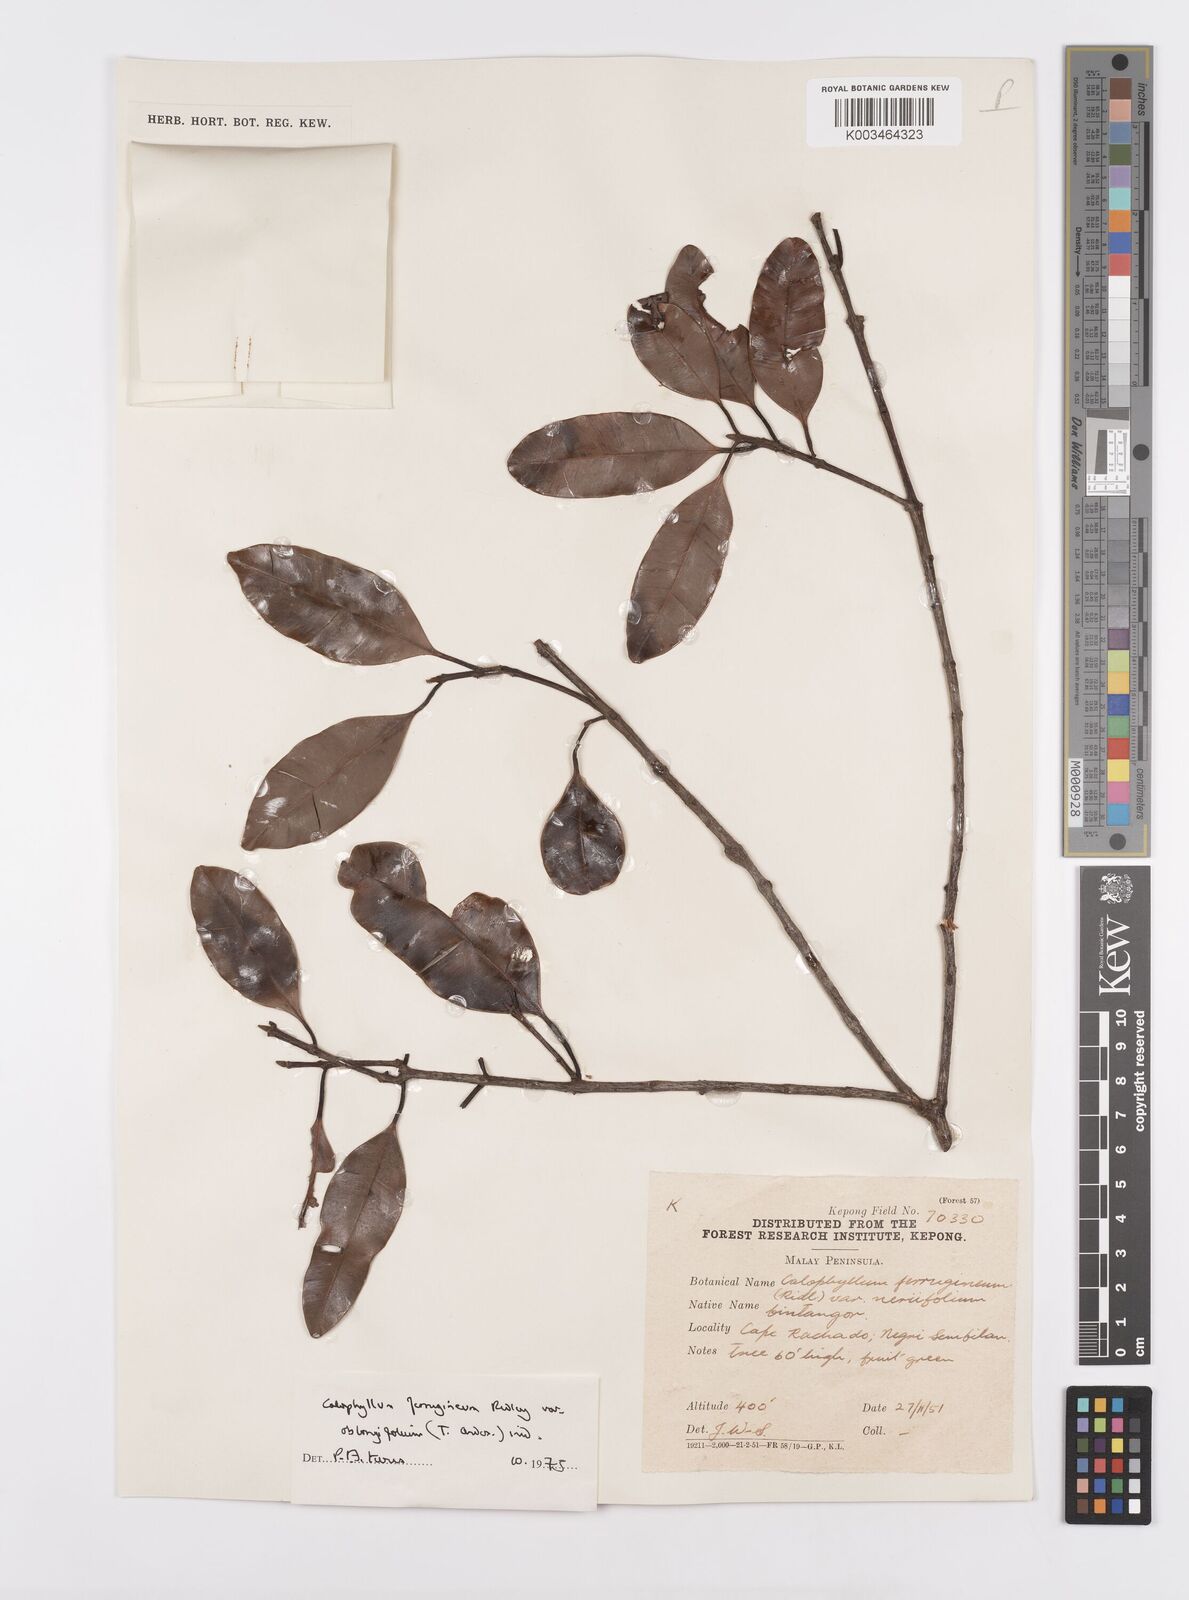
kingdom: Plantae
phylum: Tracheophyta
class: Magnoliopsida
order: Malpighiales
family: Calophyllaceae
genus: Calophyllum
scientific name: Calophyllum ferrugineum
